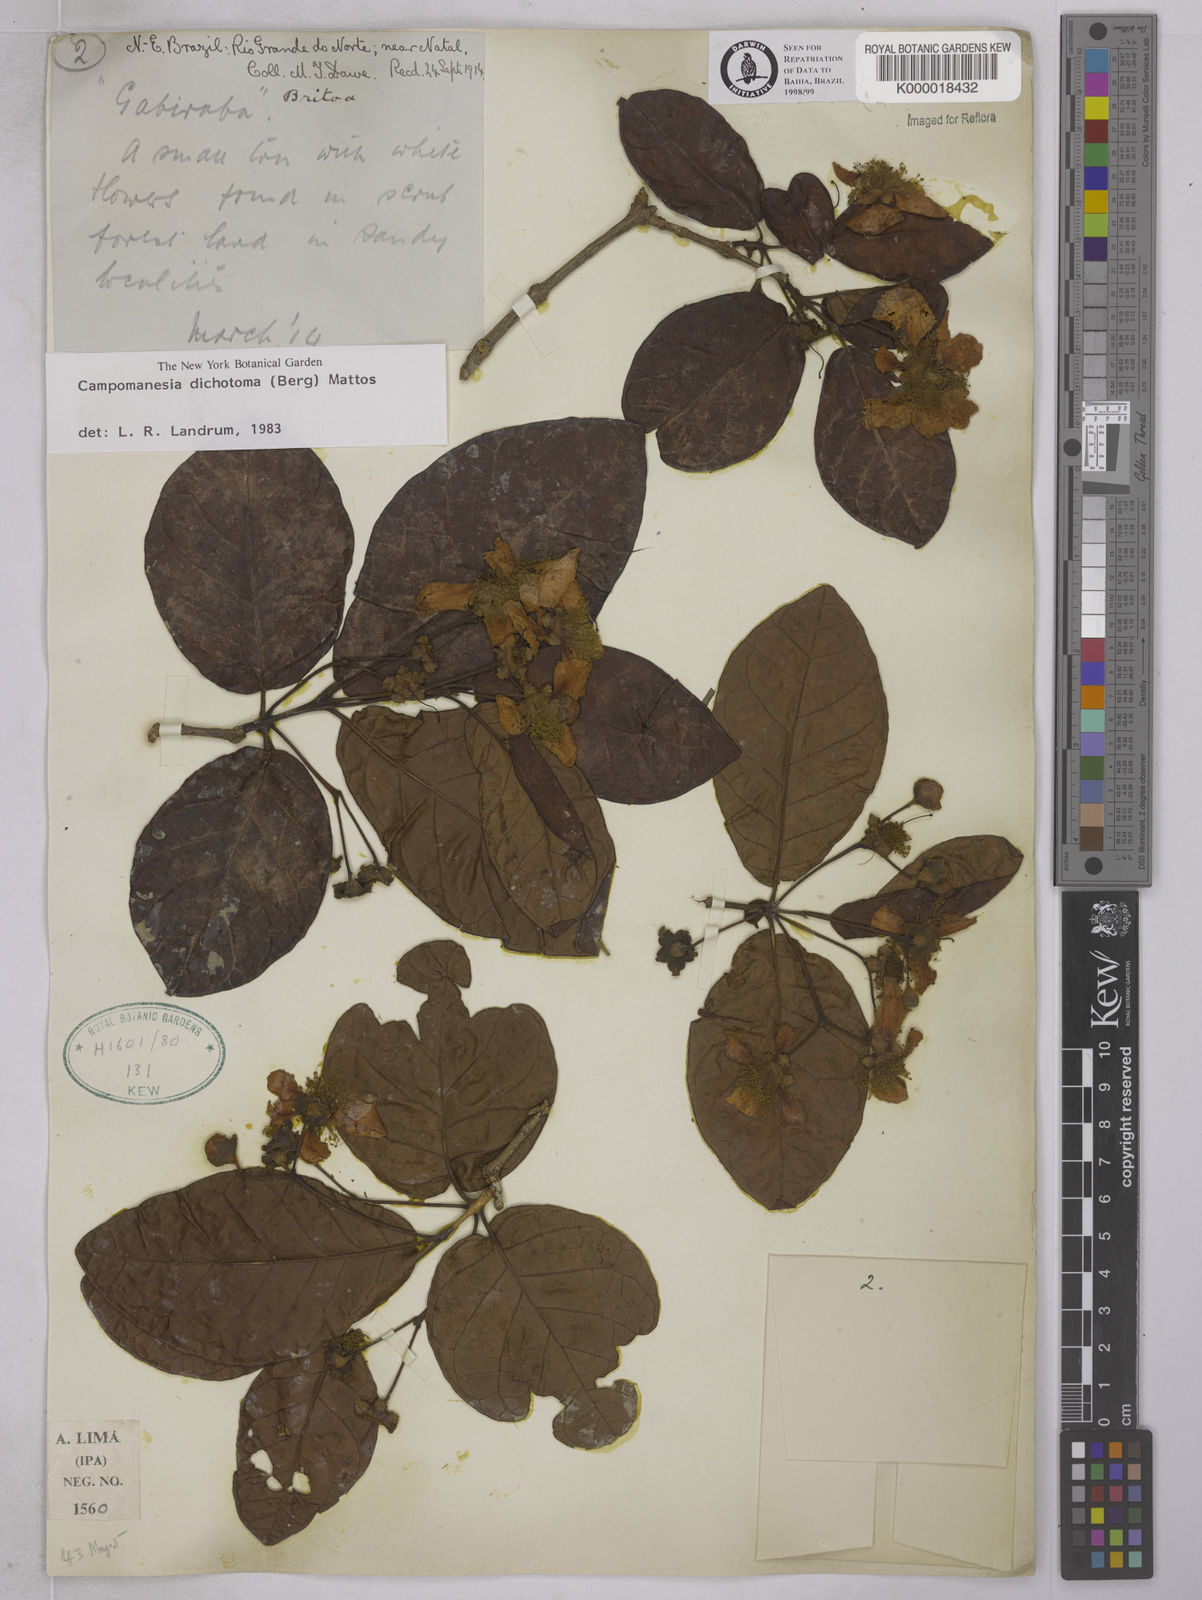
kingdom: Plantae
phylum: Tracheophyta
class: Magnoliopsida
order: Myrtales
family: Myrtaceae
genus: Campomanesia
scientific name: Campomanesia dichotoma
